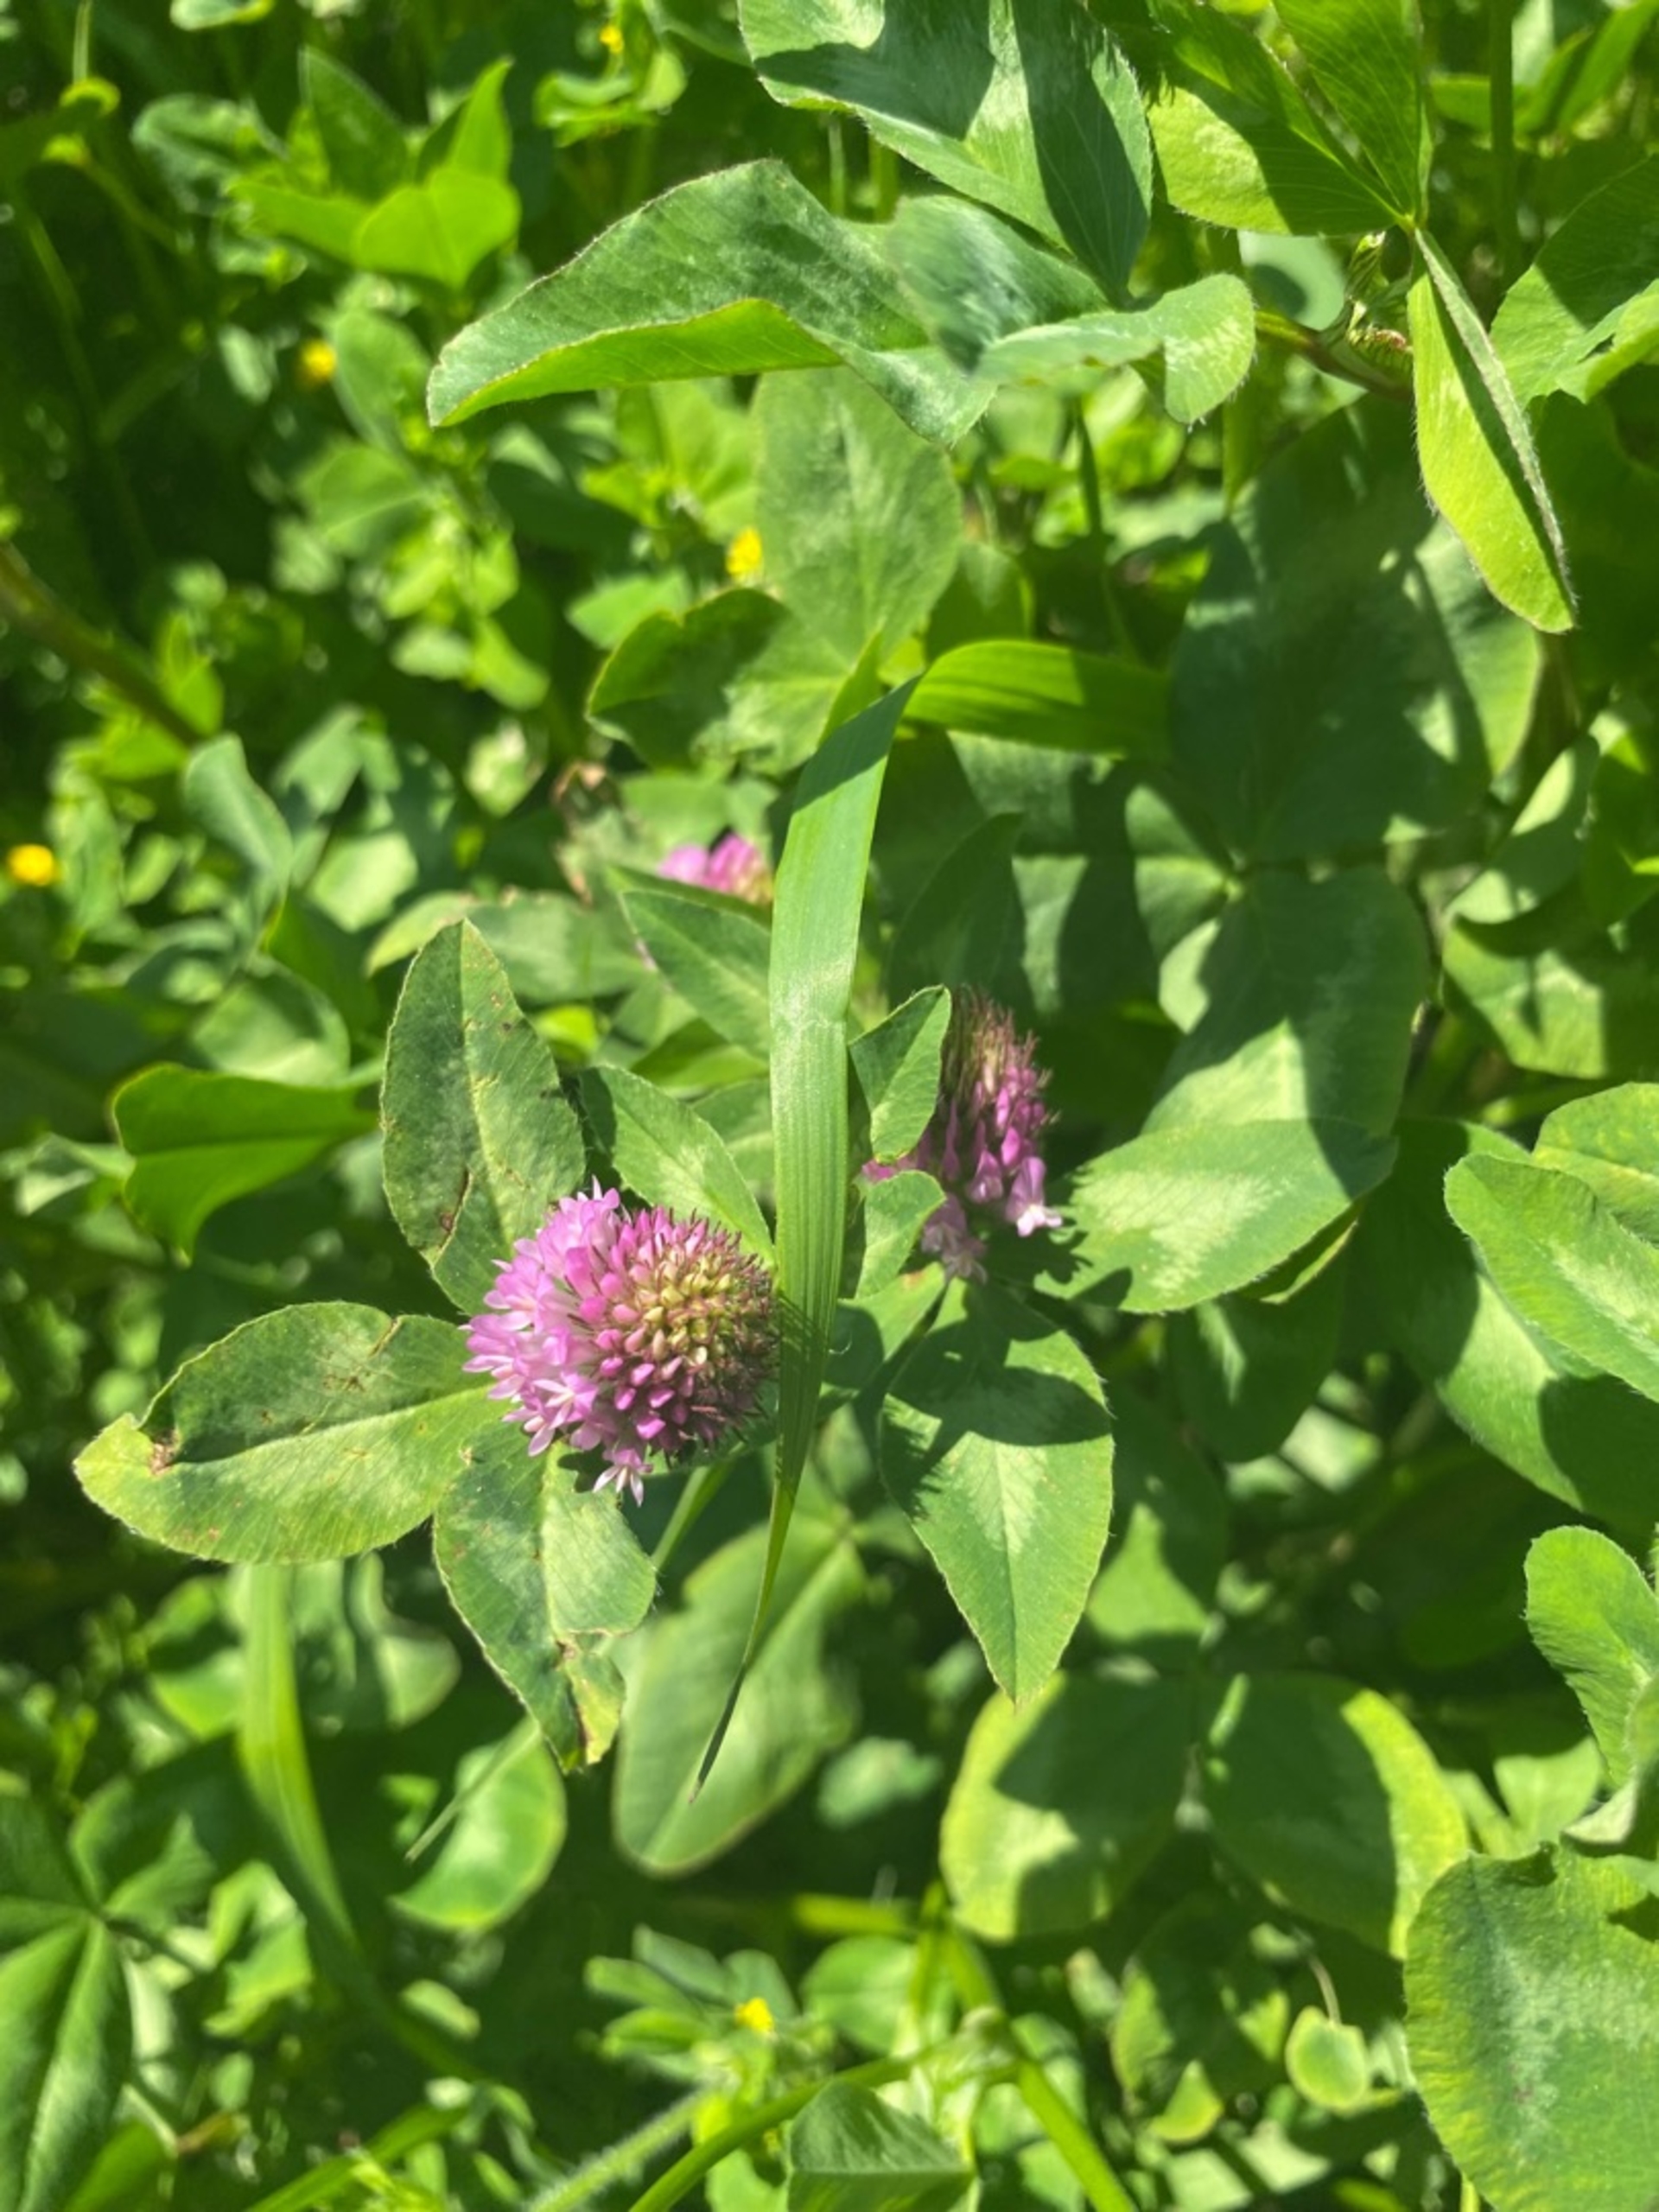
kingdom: Plantae
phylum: Tracheophyta
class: Magnoliopsida
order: Fabales
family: Fabaceae
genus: Trifolium
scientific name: Trifolium pratense
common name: Rød-kløver
